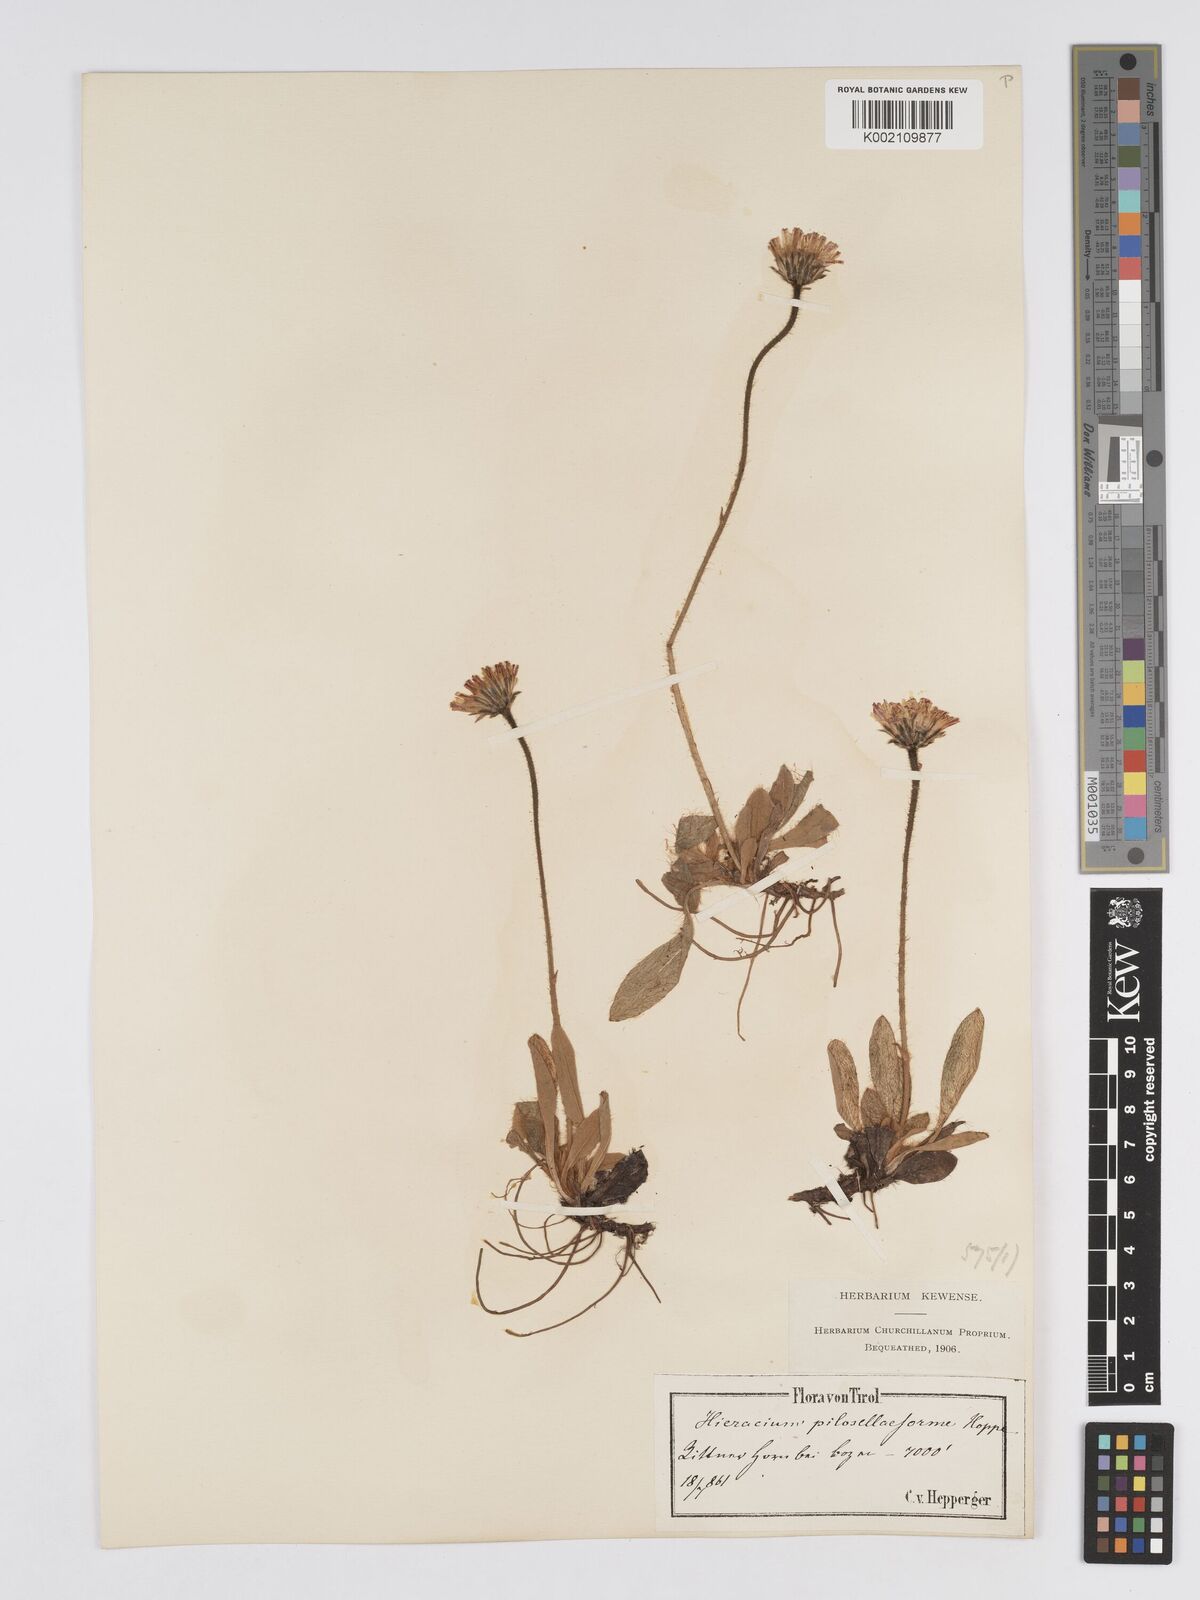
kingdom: Plantae
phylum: Tracheophyta
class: Magnoliopsida
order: Asterales
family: Asteraceae
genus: Pilosella
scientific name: Pilosella hoppeana
